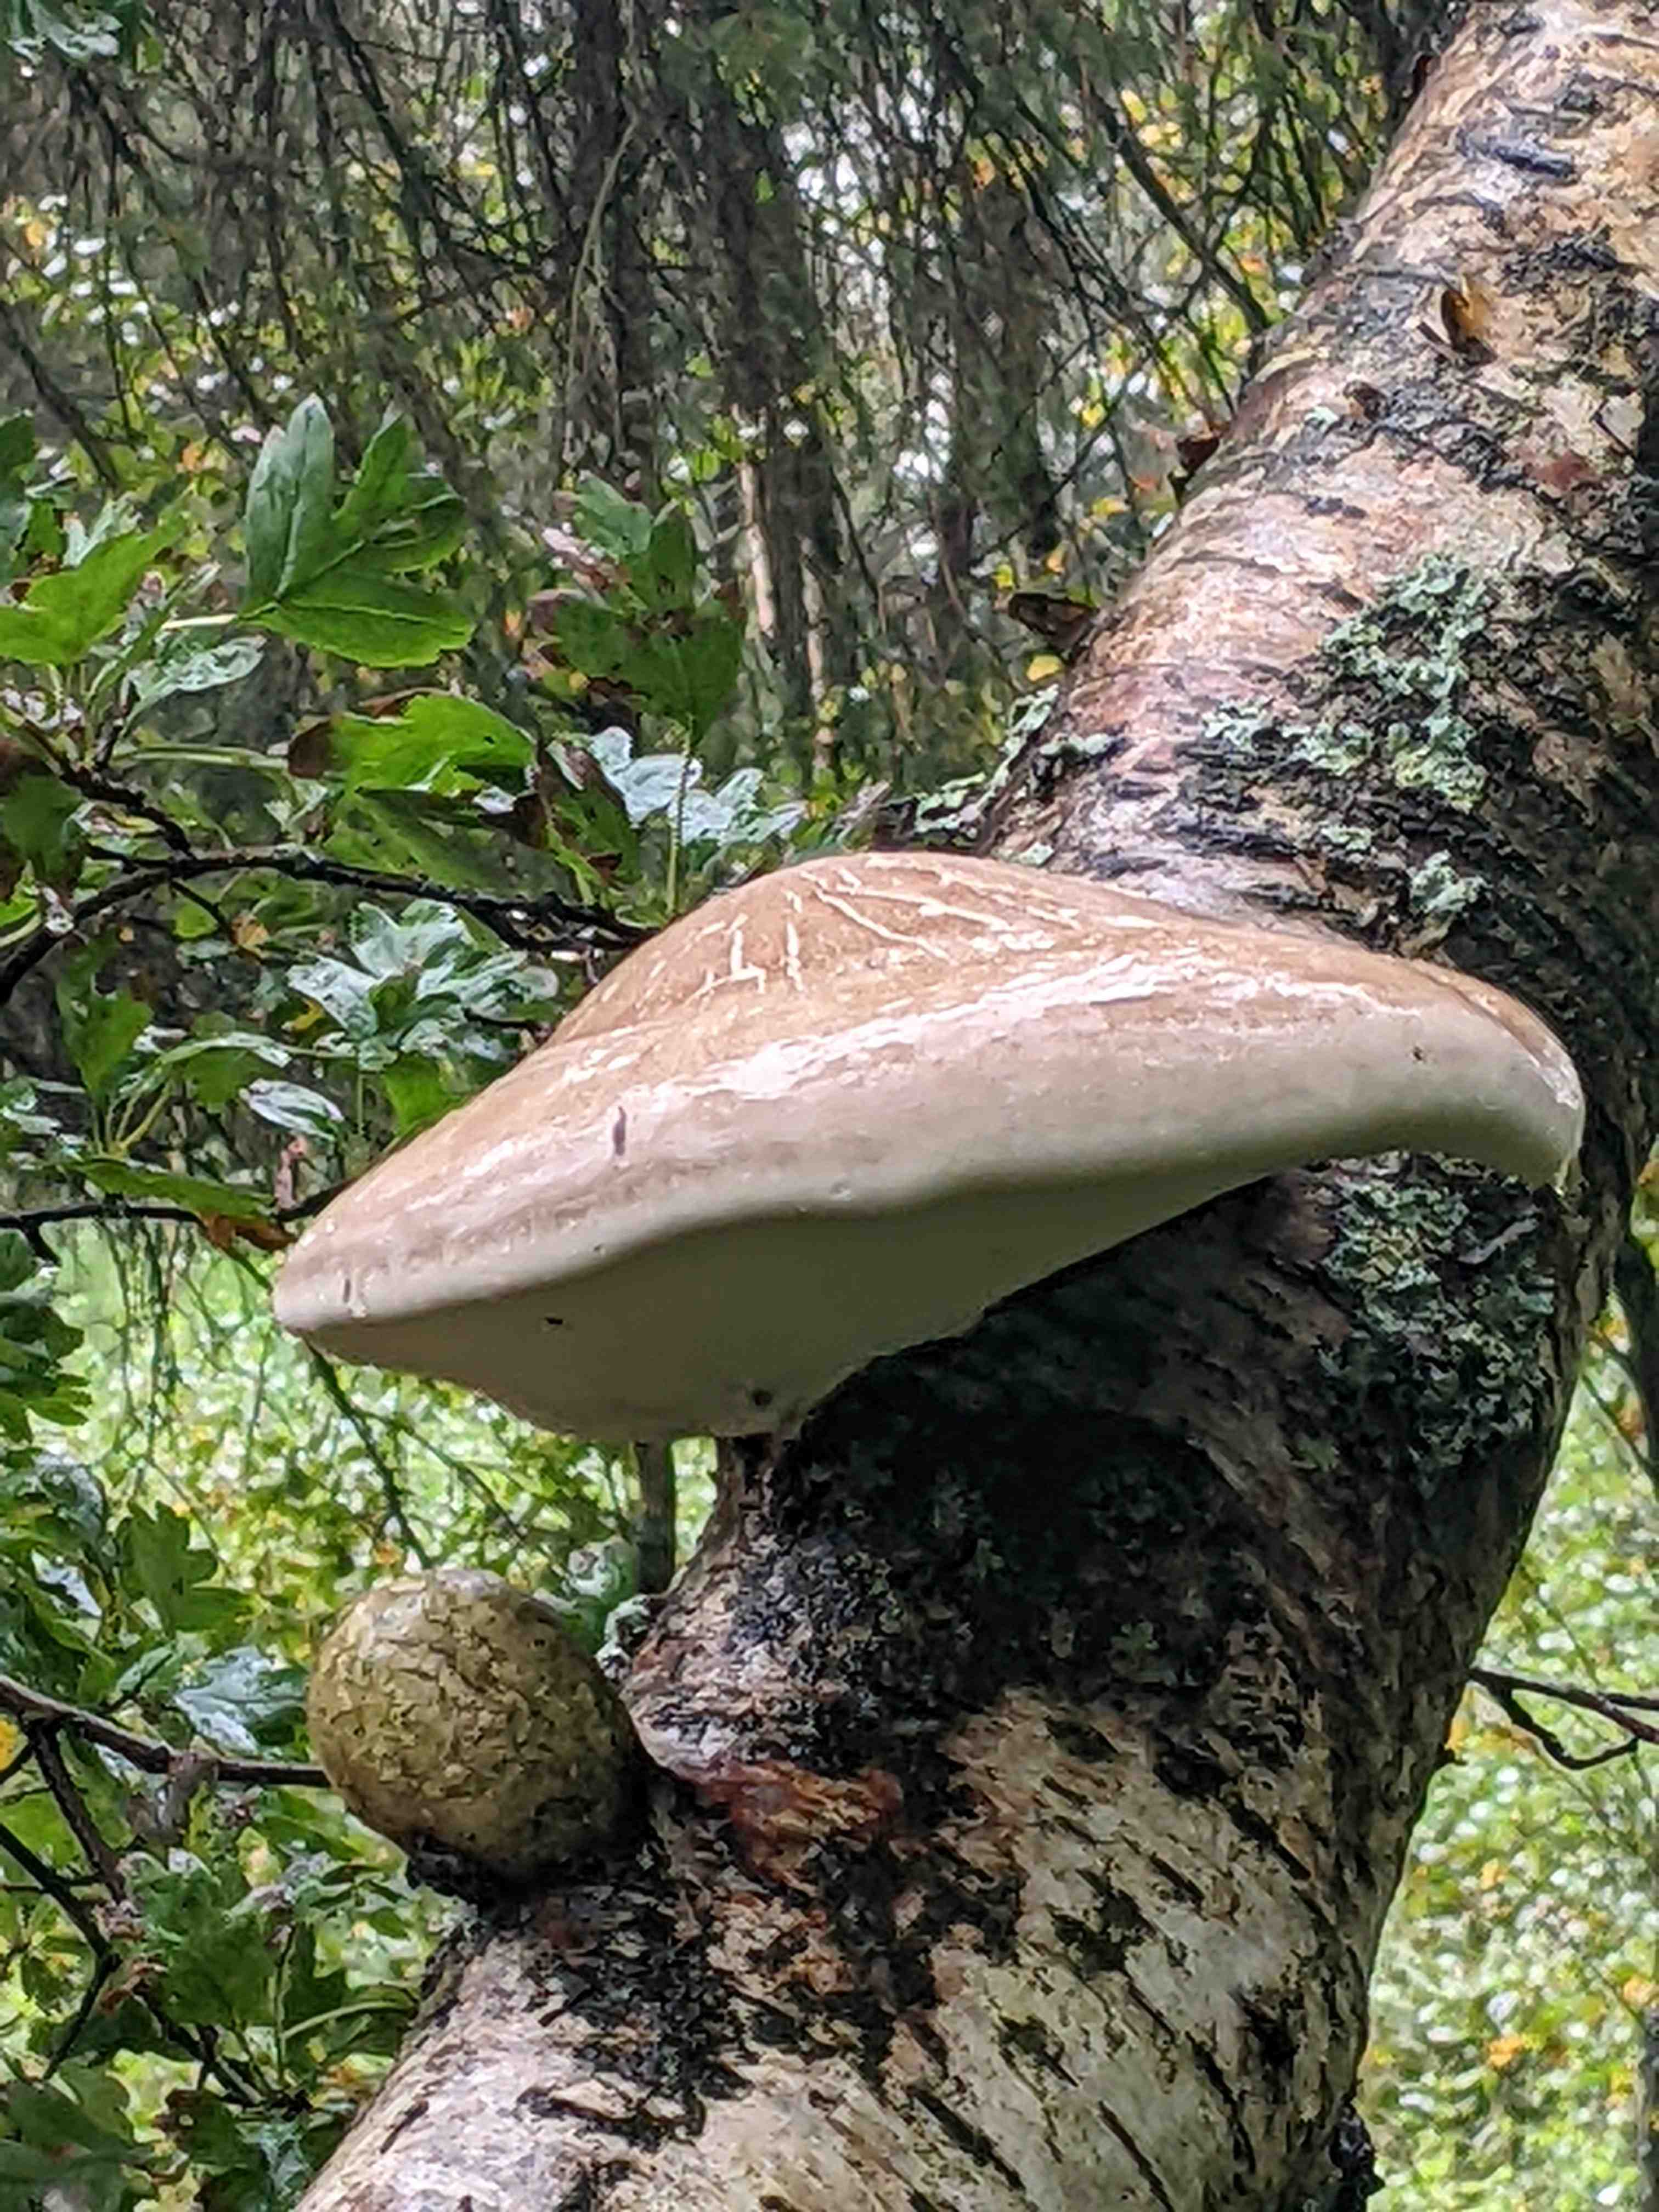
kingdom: Fungi
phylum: Basidiomycota
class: Agaricomycetes
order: Polyporales
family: Fomitopsidaceae
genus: Fomitopsis
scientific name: Fomitopsis betulina
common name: birkeporesvamp
